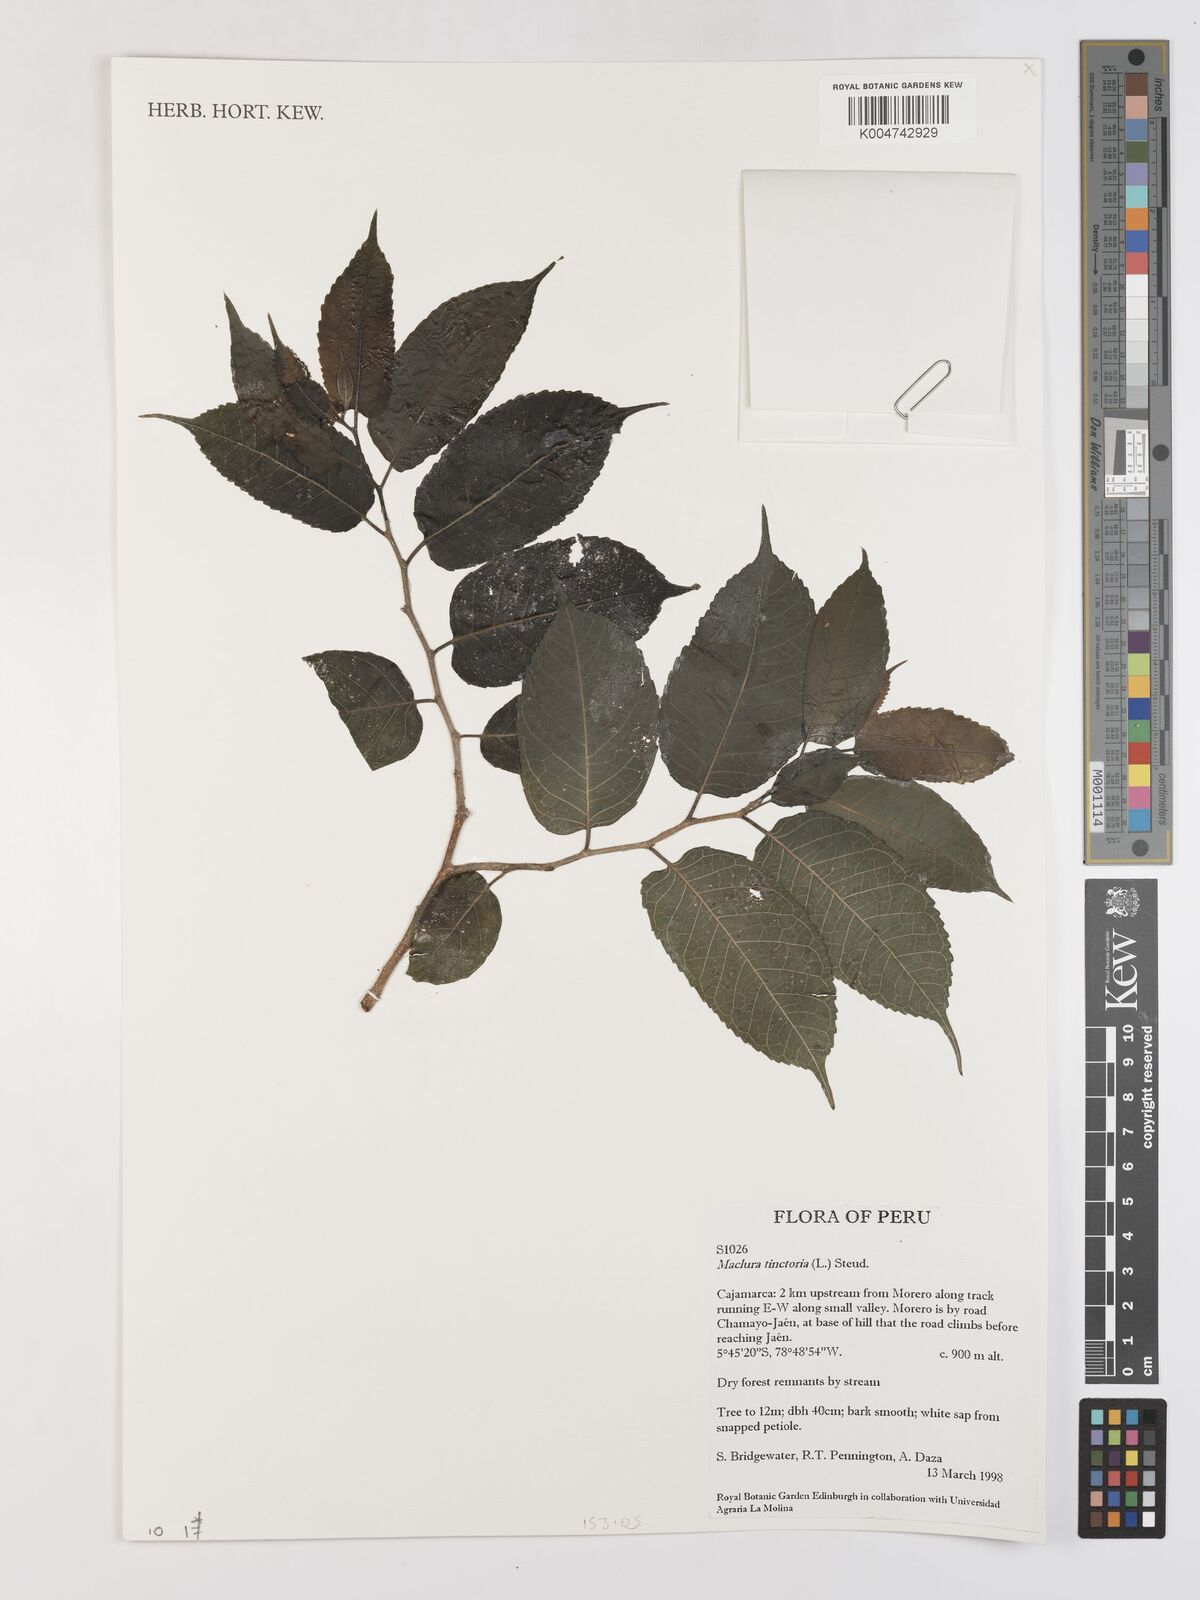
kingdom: Plantae
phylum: Tracheophyta
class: Magnoliopsida
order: Rosales
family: Moraceae
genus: Maclura
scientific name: Maclura tinctoria
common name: Old fustic
